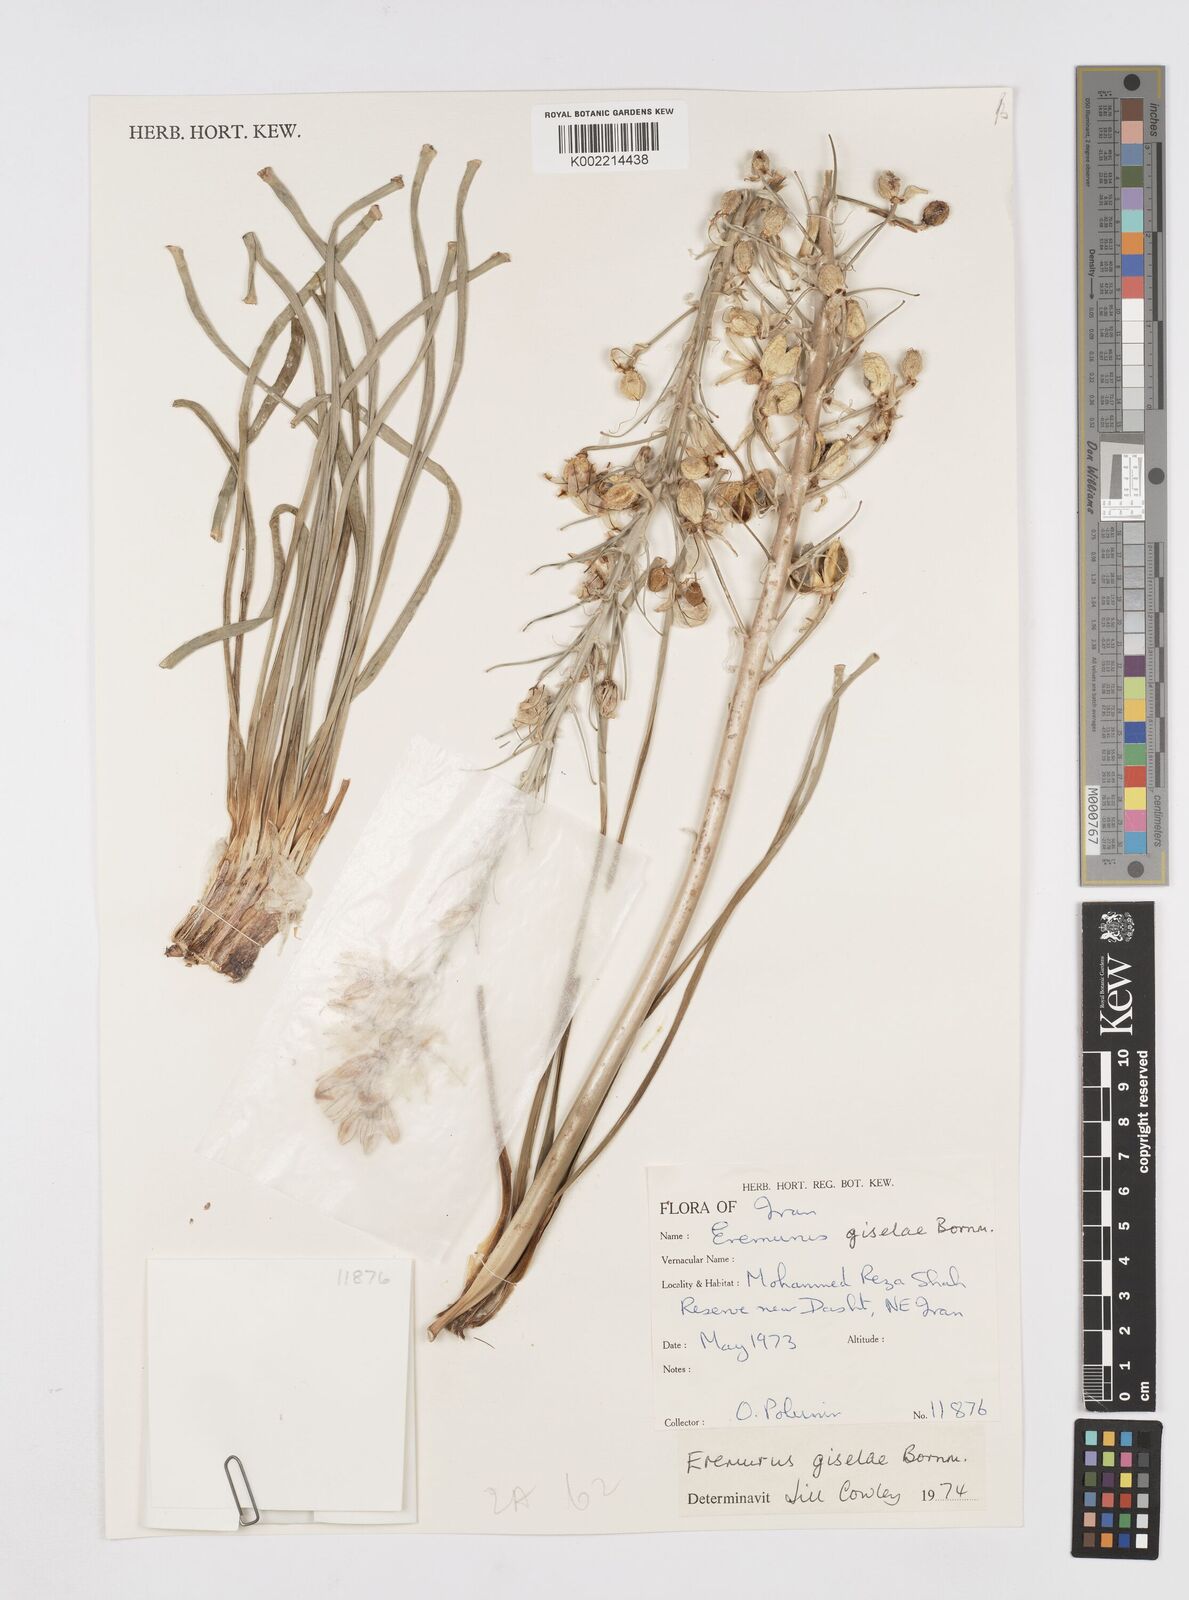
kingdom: Plantae
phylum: Tracheophyta
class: Liliopsida
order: Asparagales
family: Asphodelaceae
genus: Eremurus
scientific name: Eremurus kopet-daghensis
